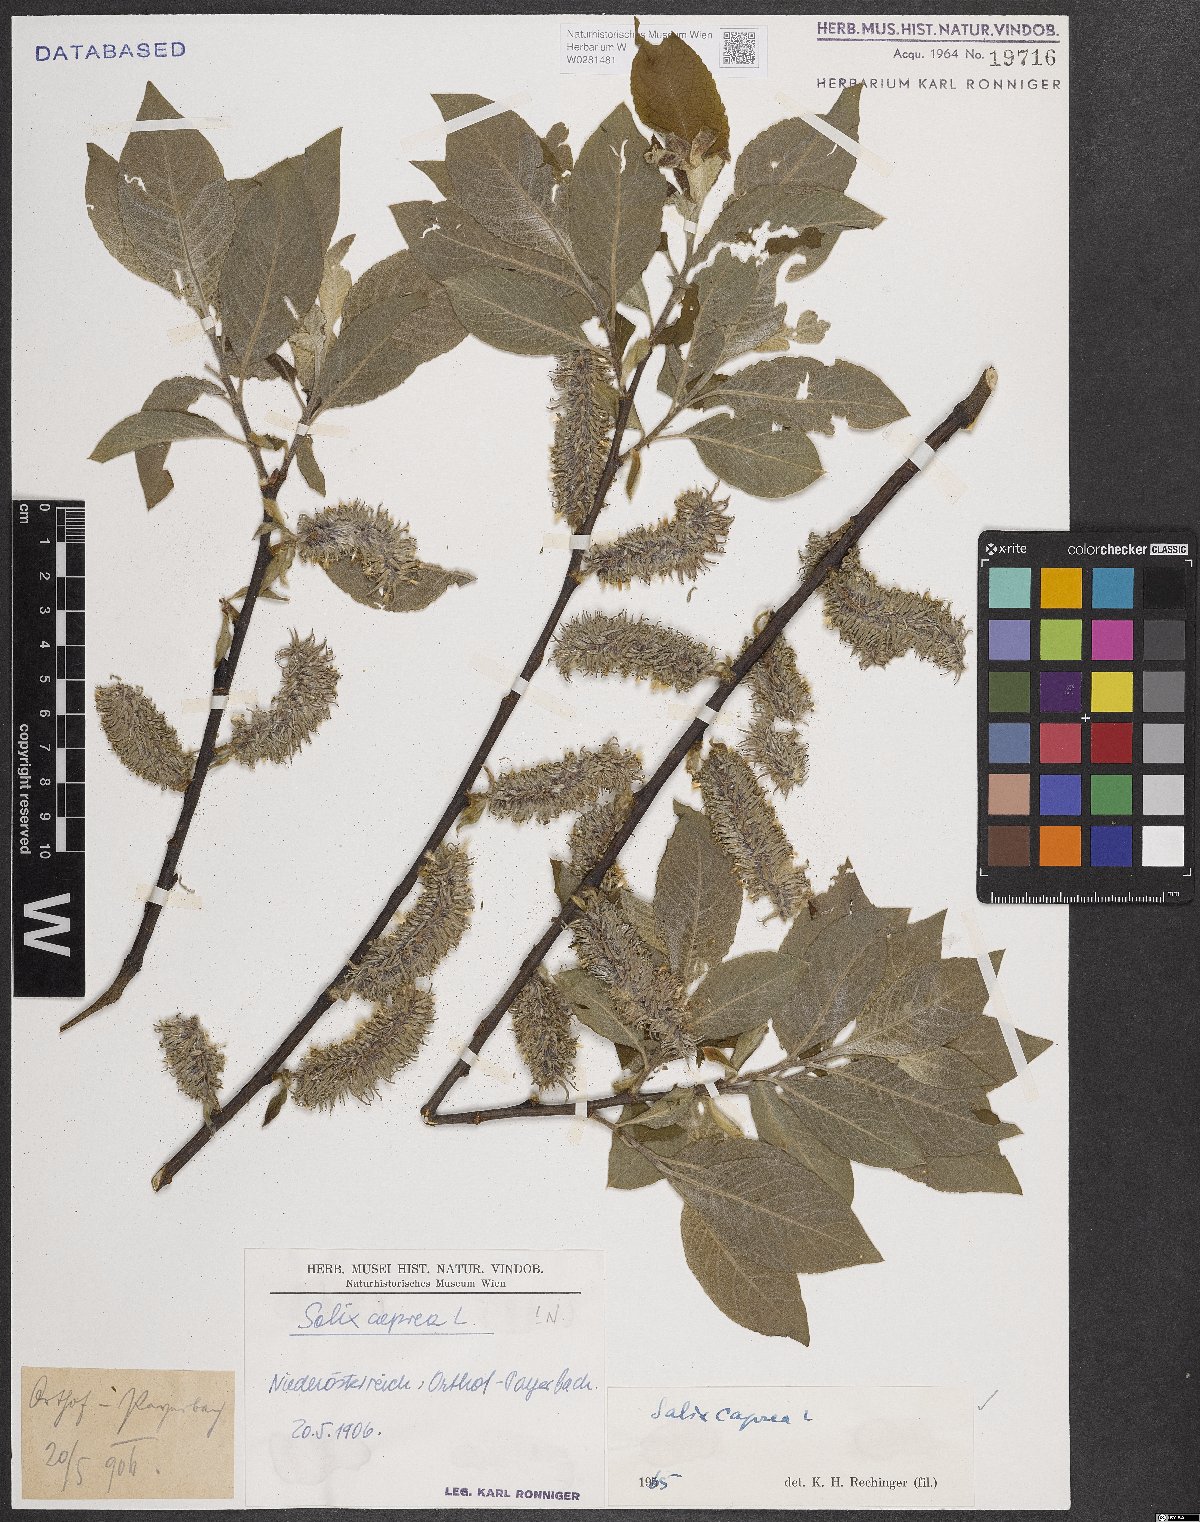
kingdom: Plantae
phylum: Tracheophyta
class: Magnoliopsida
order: Malpighiales
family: Salicaceae
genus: Salix
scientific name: Salix caprea
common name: Goat willow
